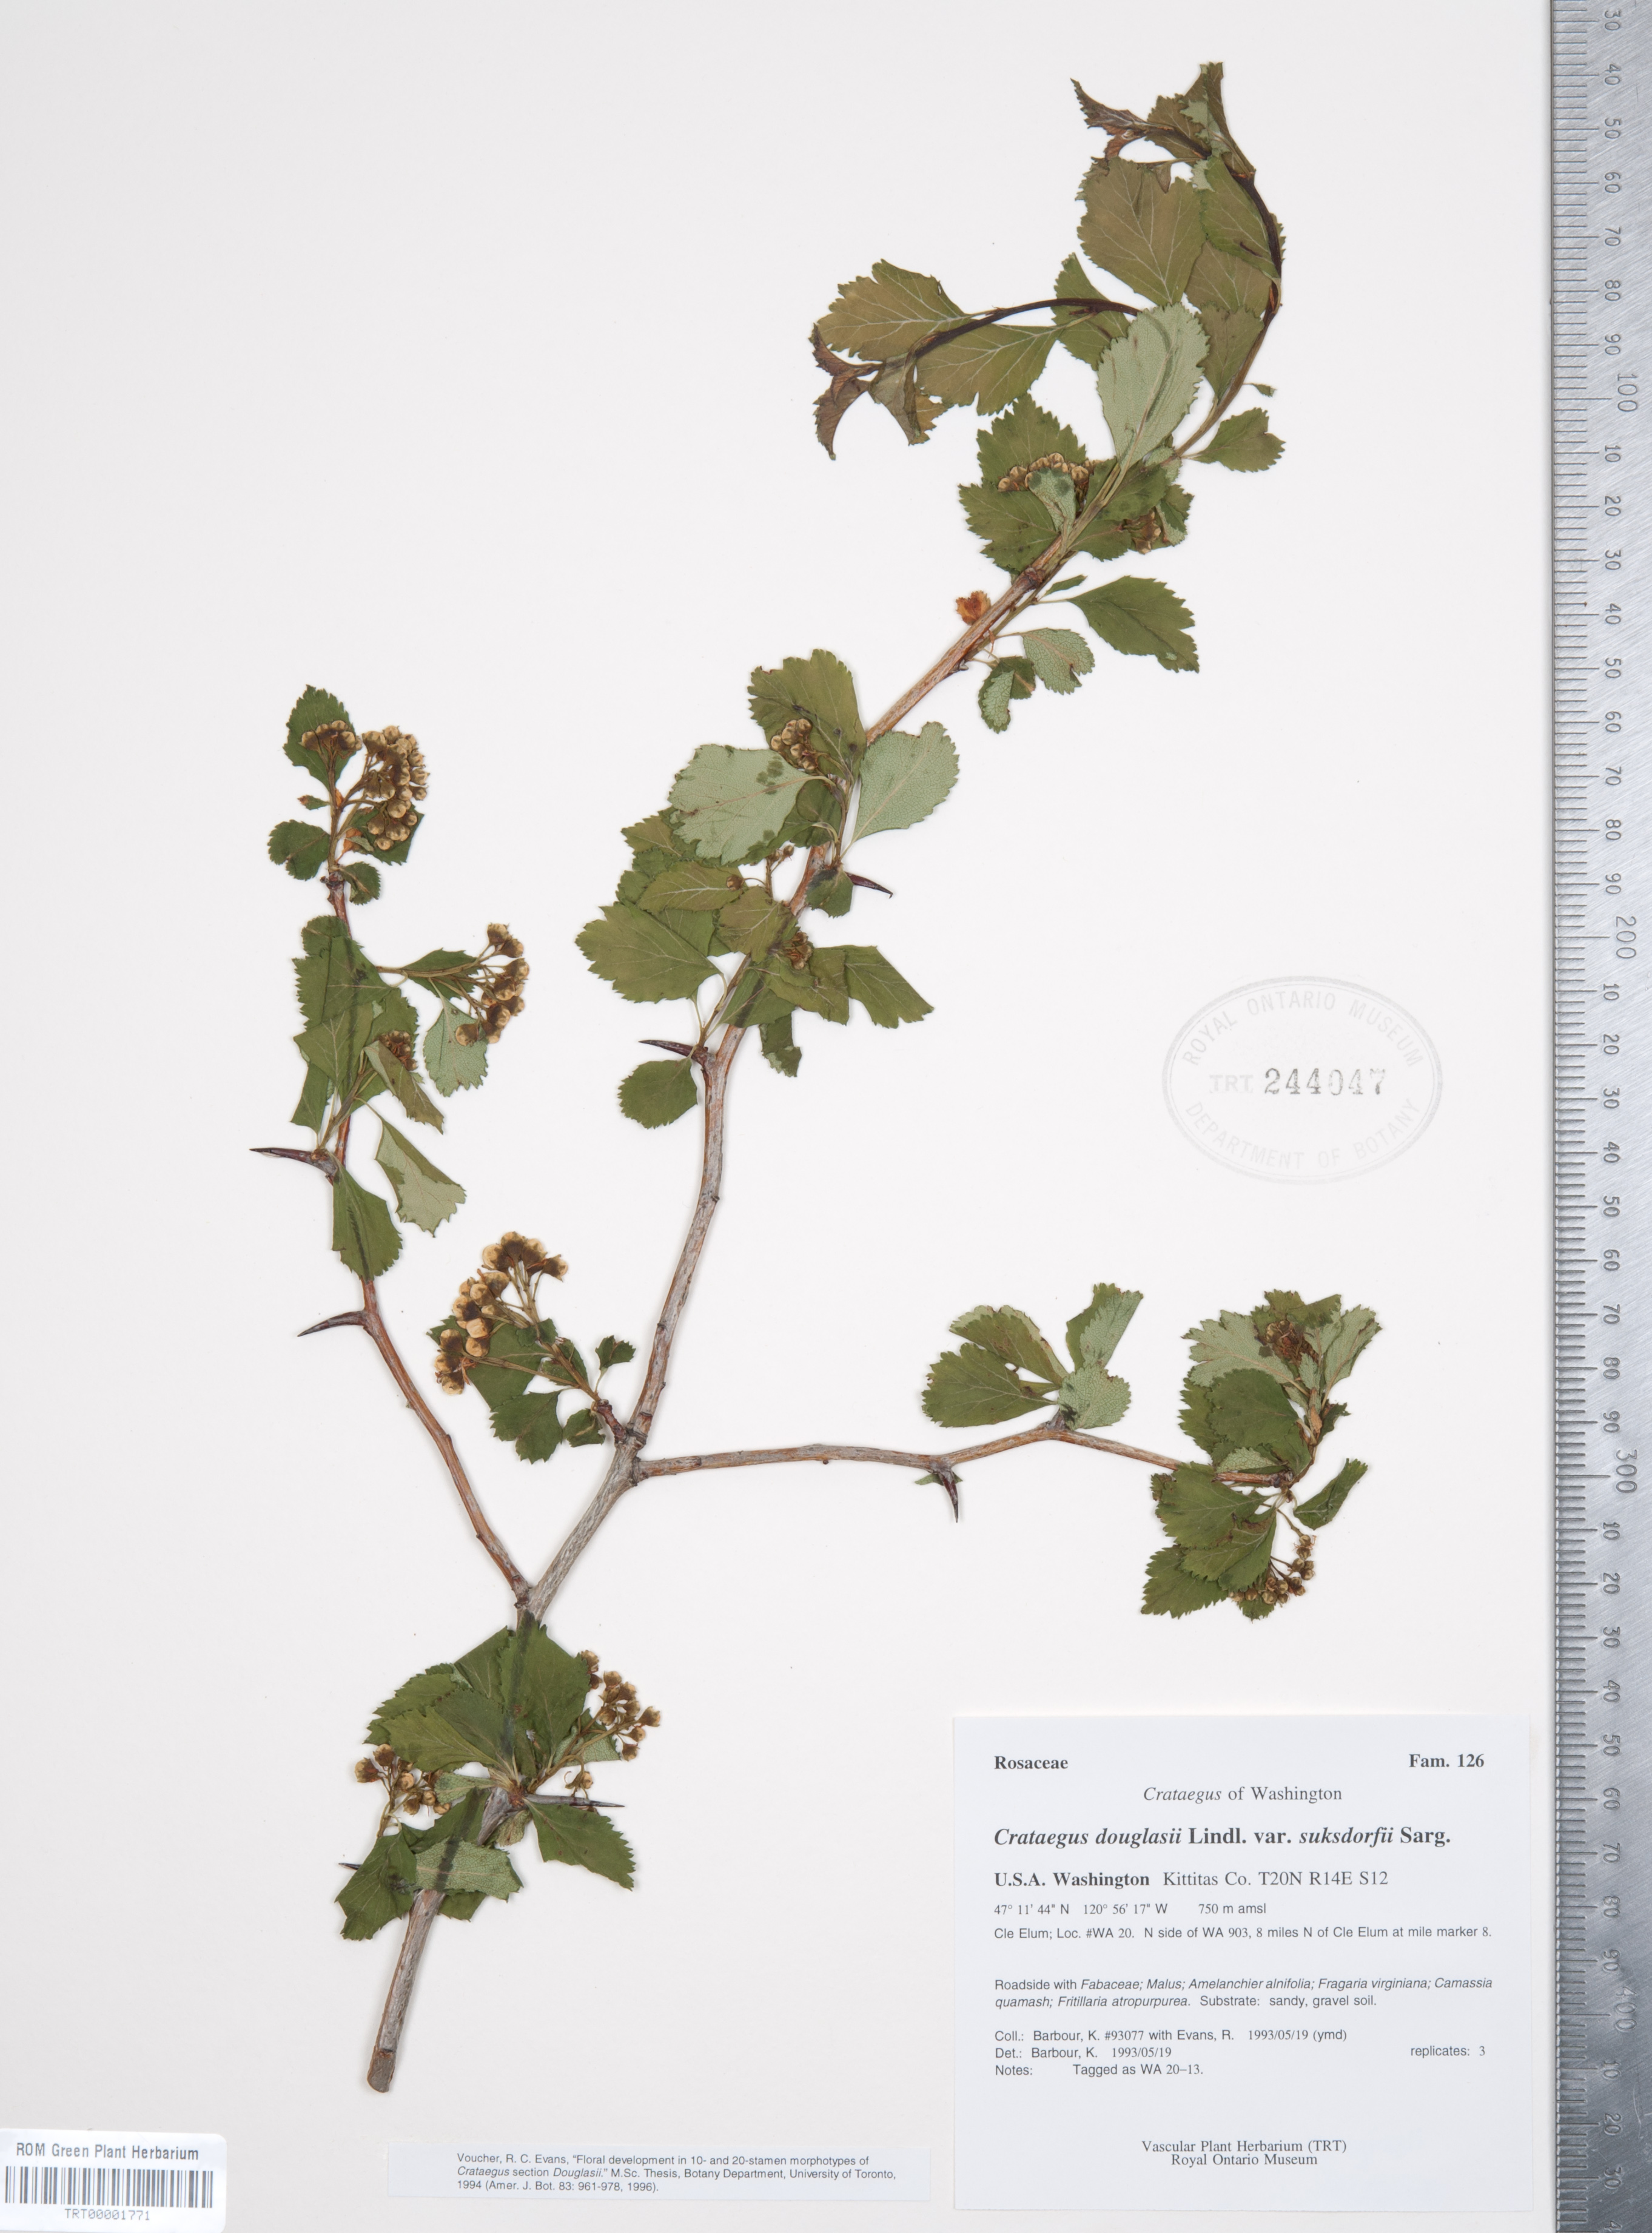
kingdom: Plantae
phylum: Tracheophyta
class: Magnoliopsida
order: Rosales
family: Rosaceae
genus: Crataegus
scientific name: Crataegus gaylussacia
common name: Huckleberry hawthorn
